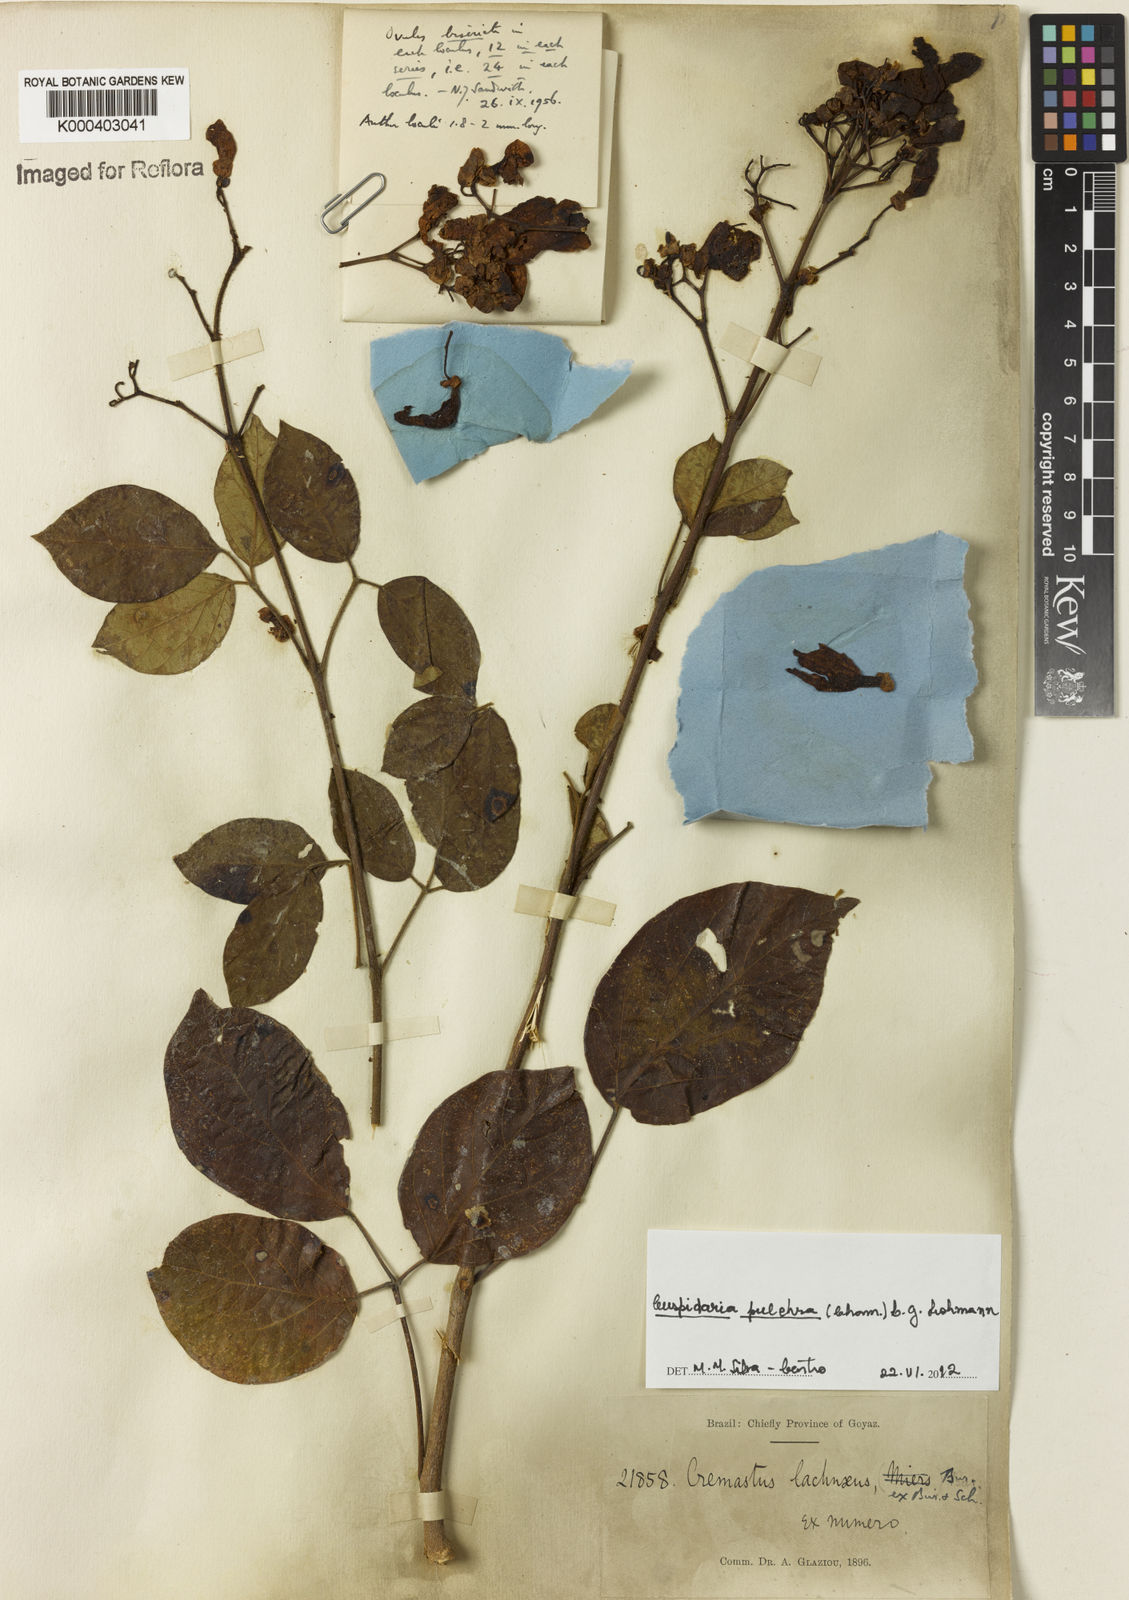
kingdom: Plantae
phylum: Tracheophyta
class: Magnoliopsida
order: Lamiales
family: Bignoniaceae
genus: Cuspidaria
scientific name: Cuspidaria pulchra
